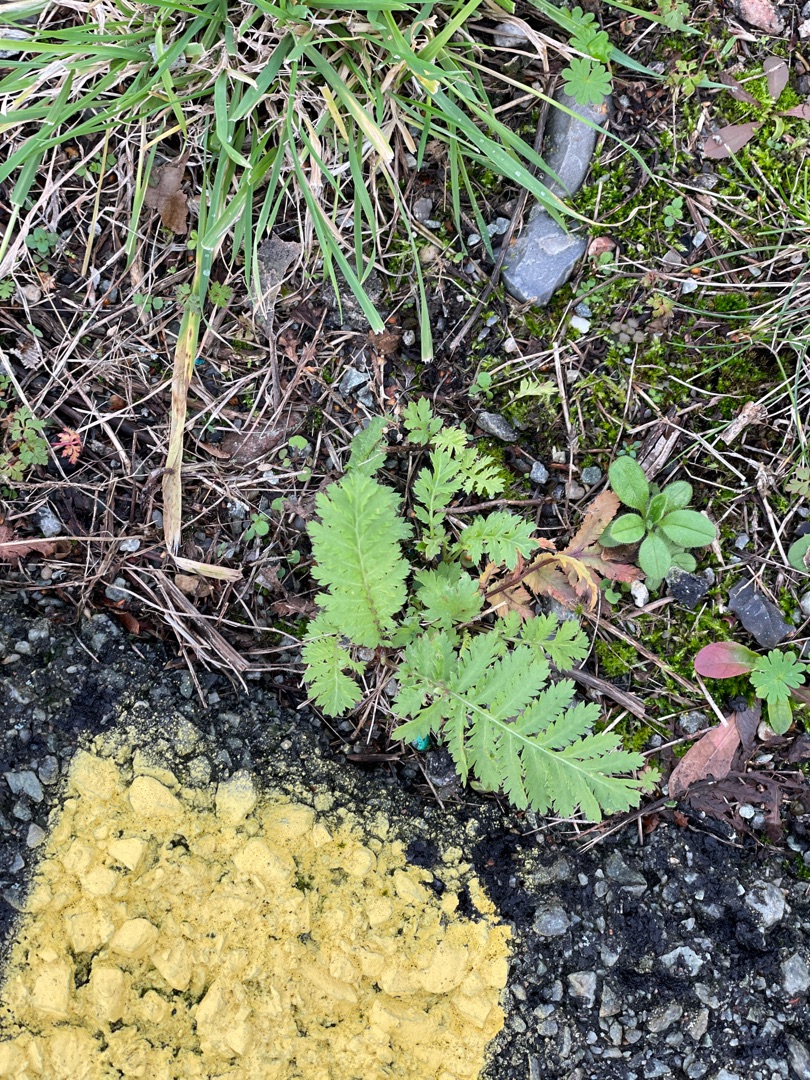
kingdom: Plantae
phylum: Tracheophyta
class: Magnoliopsida
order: Asterales
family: Asteraceae
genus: Tanacetum
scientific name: Tanacetum vulgare
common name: Rejnfan
